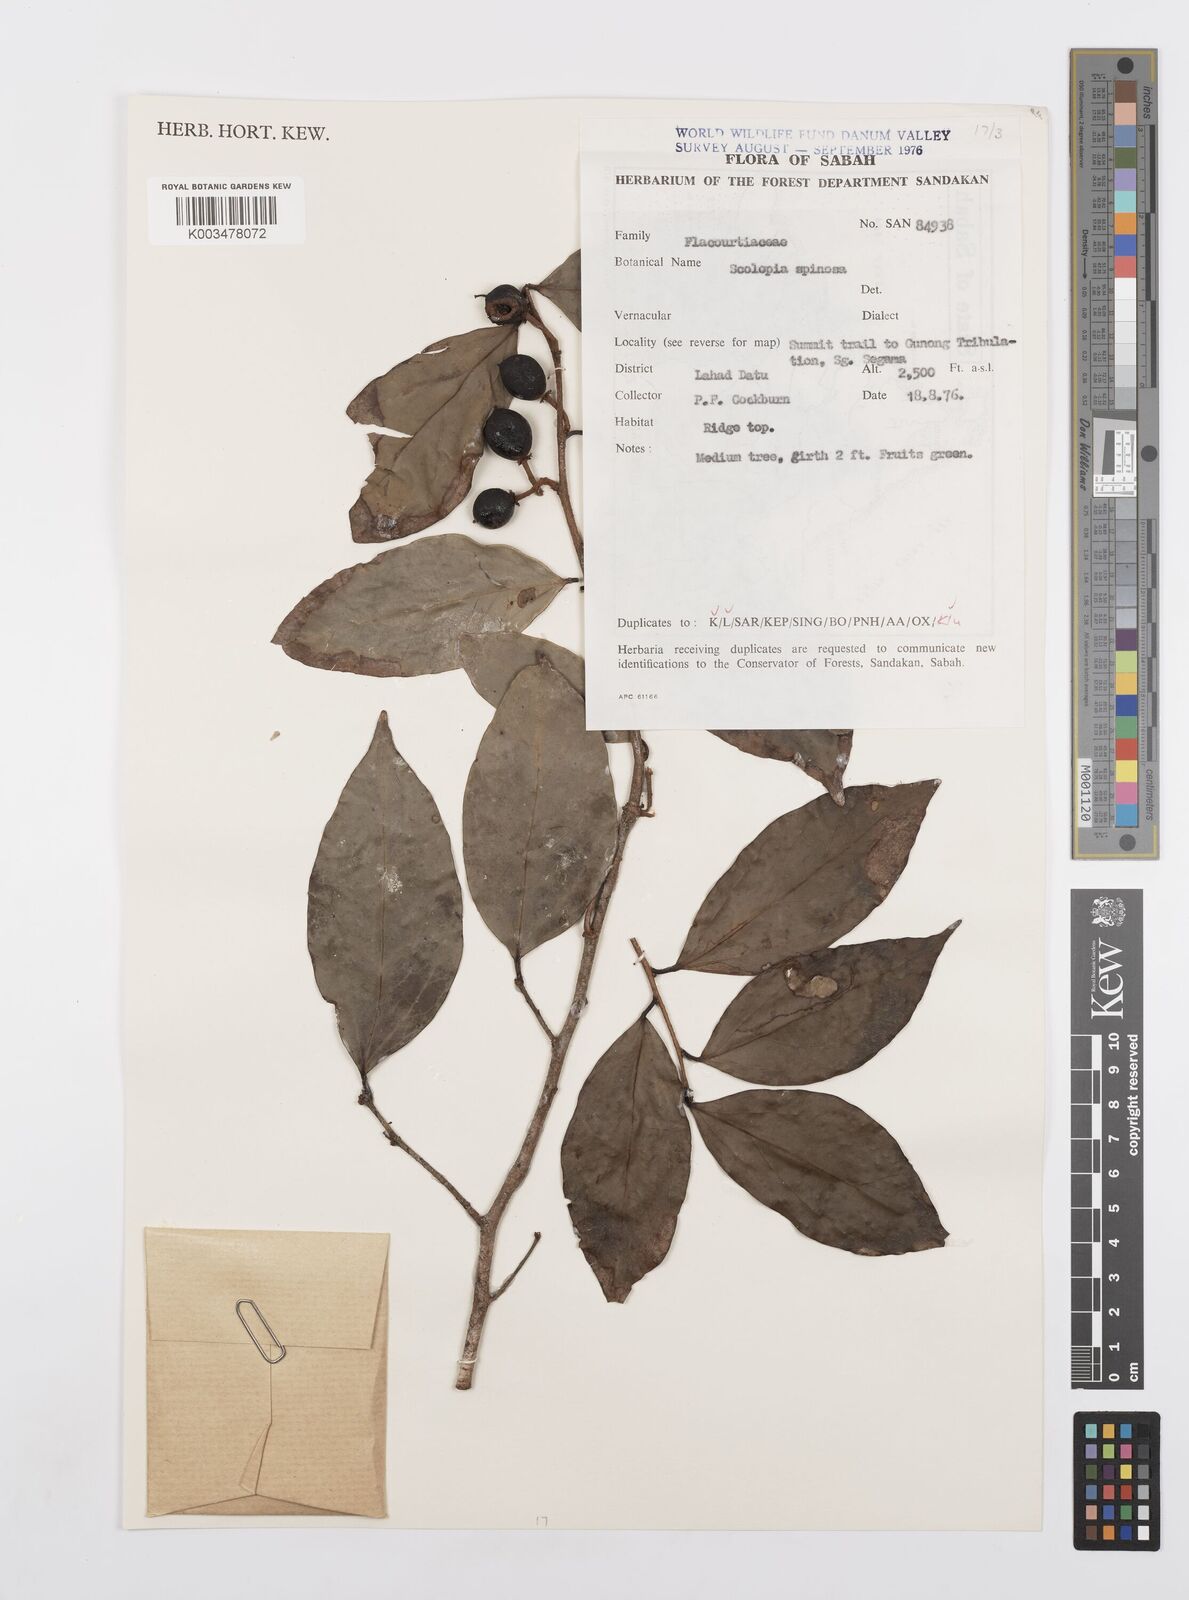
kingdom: Plantae
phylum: Tracheophyta
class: Magnoliopsida
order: Malpighiales
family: Salicaceae
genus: Scolopia
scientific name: Scolopia spinosa
